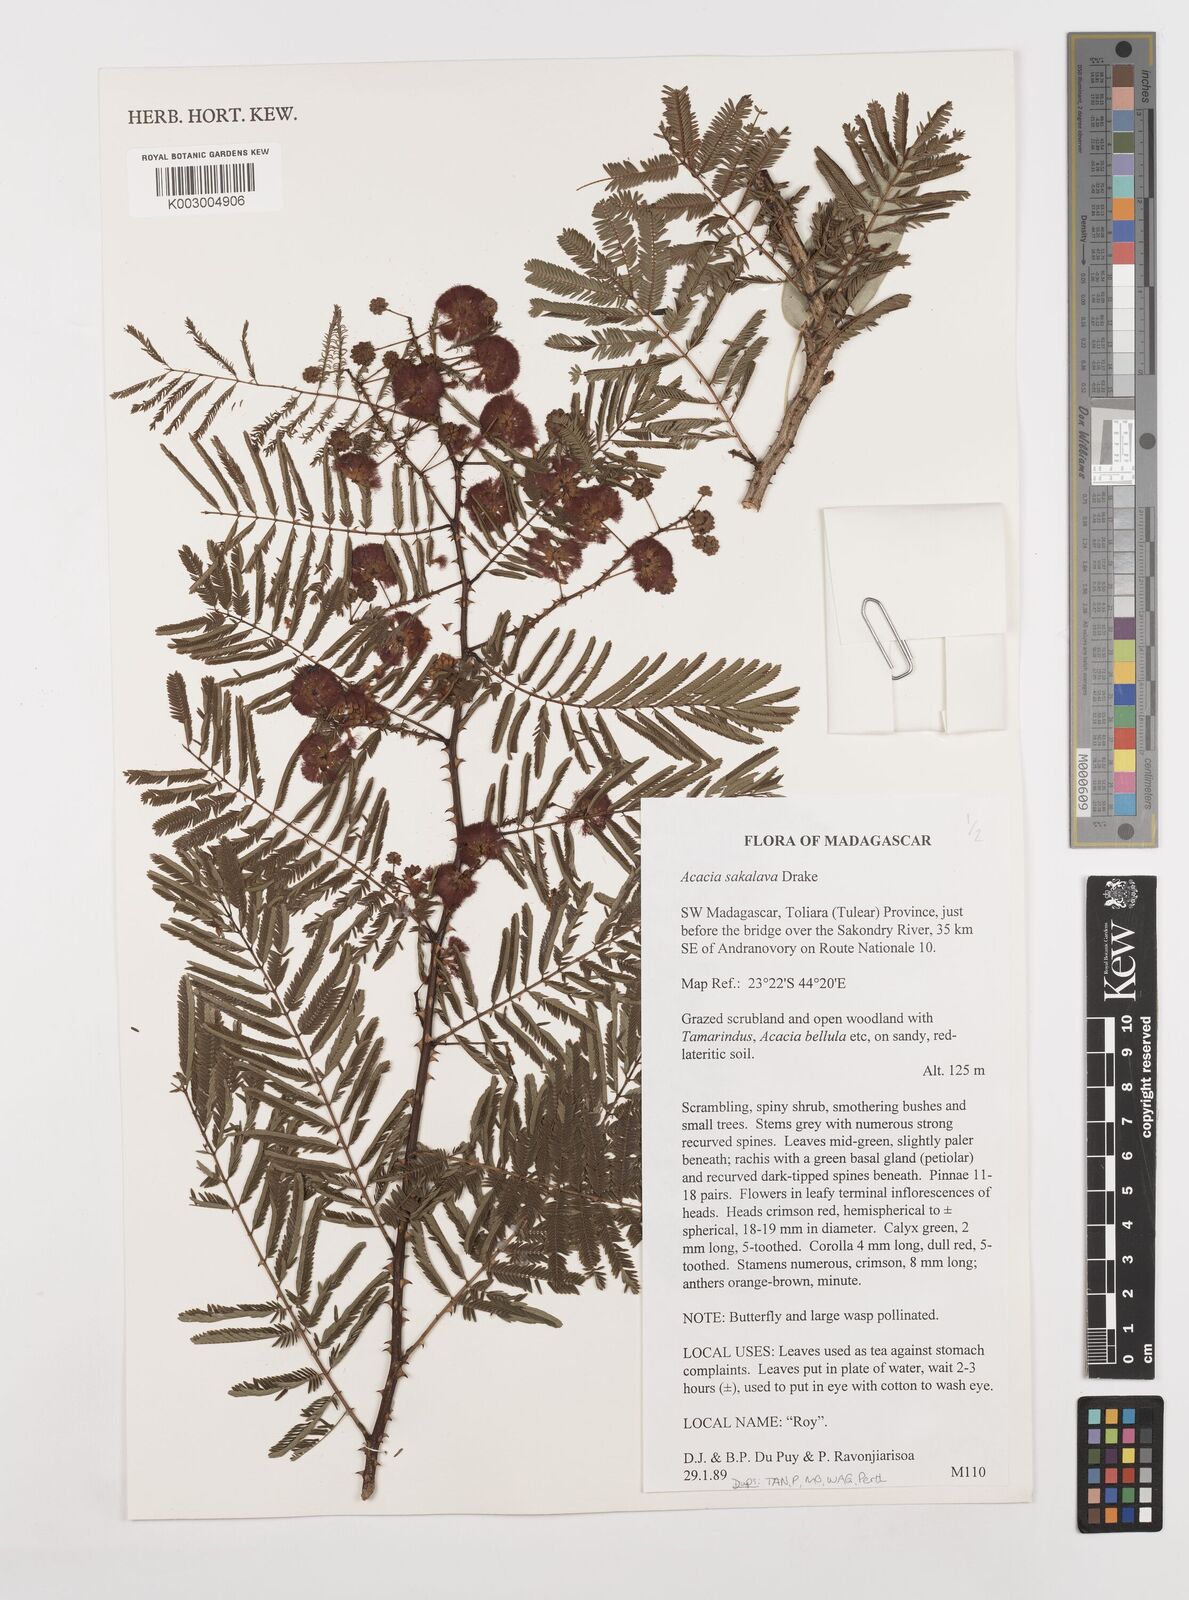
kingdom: Plantae
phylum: Tracheophyta
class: Magnoliopsida
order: Fabales
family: Fabaceae
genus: Senegalia
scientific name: Senegalia sakalava
